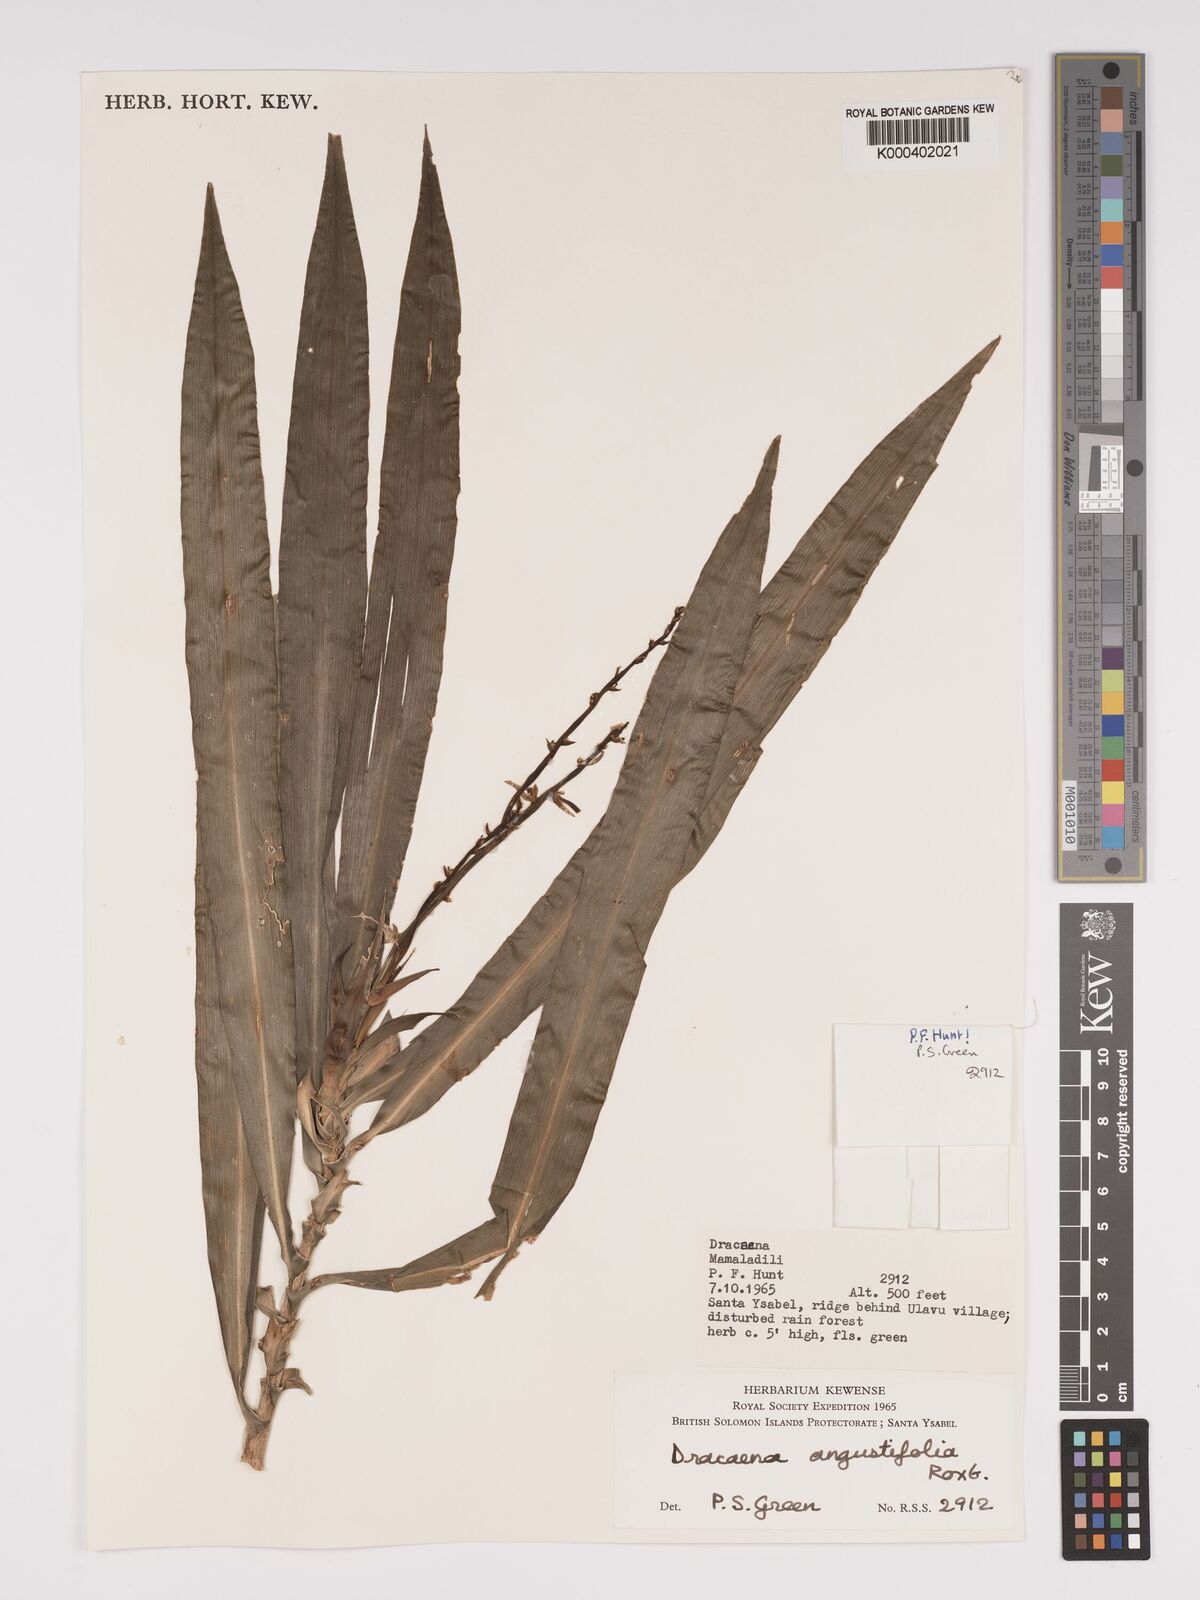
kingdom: Plantae
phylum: Tracheophyta
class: Liliopsida
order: Asparagales
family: Asparagaceae
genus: Dracaena
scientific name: Dracaena angustifolia
